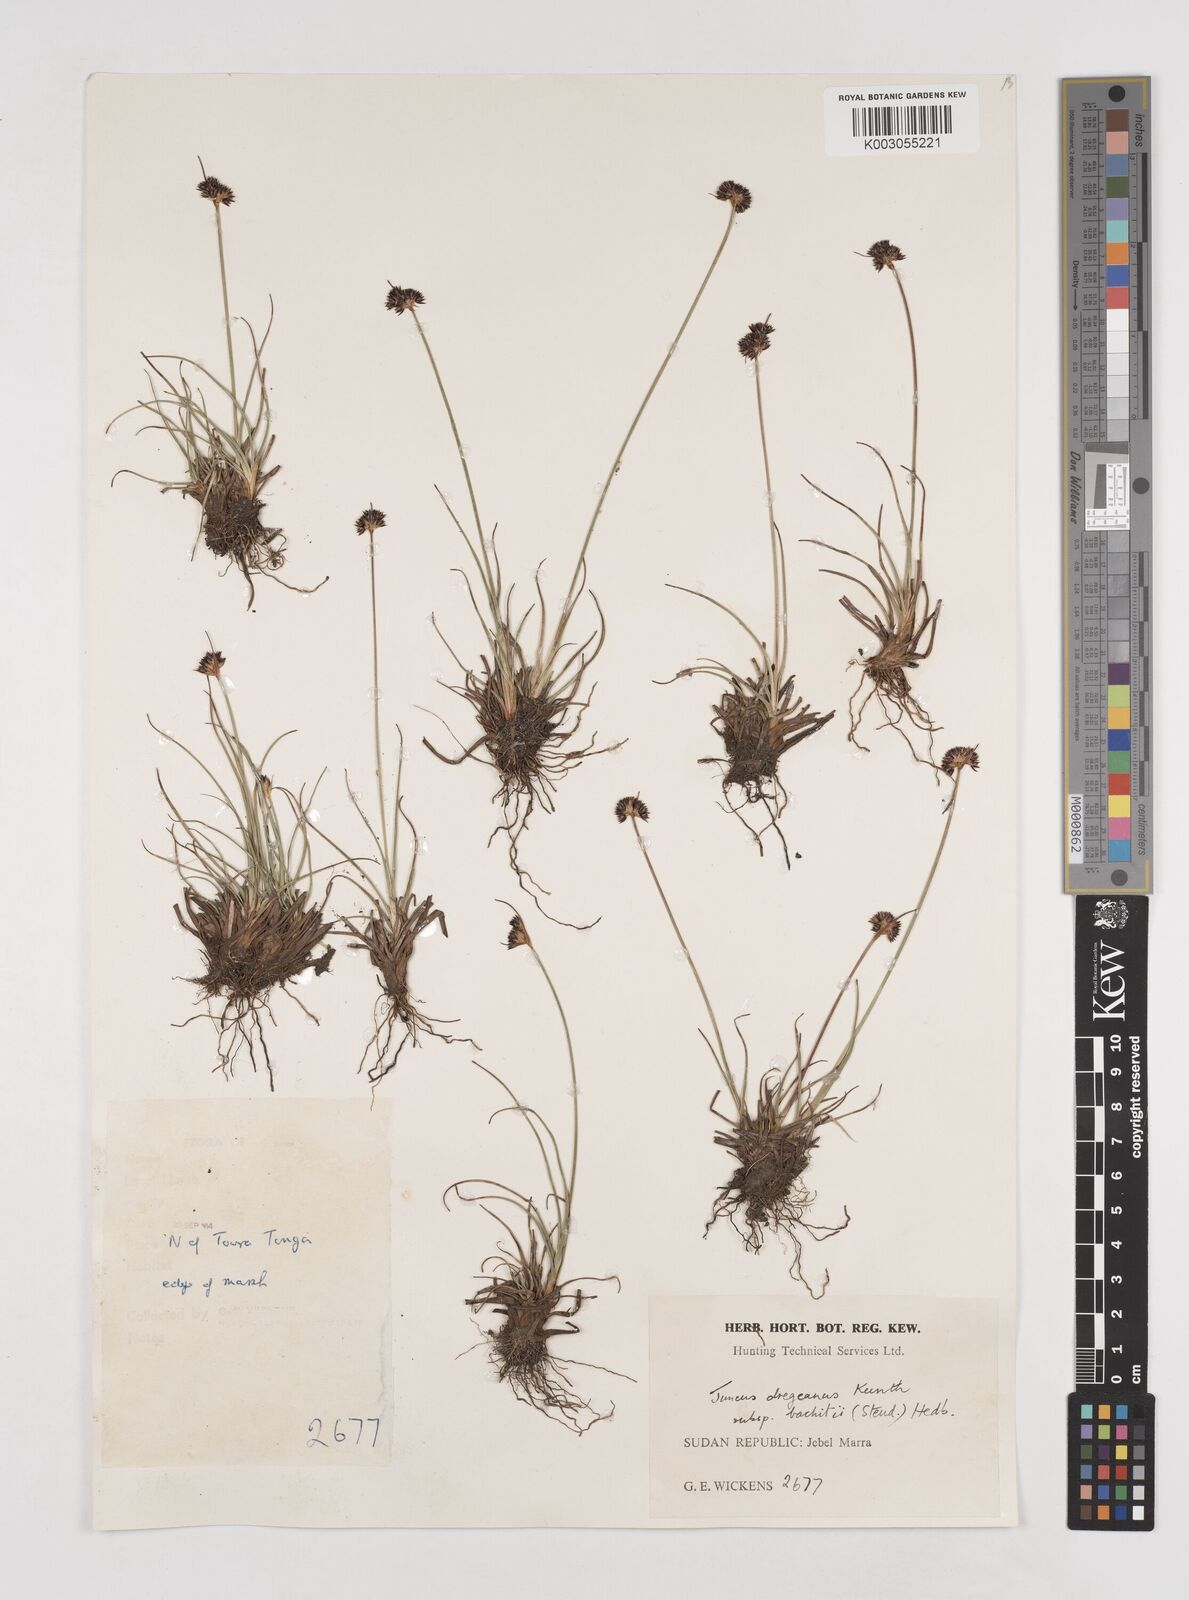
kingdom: Plantae
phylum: Tracheophyta
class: Liliopsida
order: Poales
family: Juncaceae
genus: Juncus
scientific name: Juncus dregeanus
